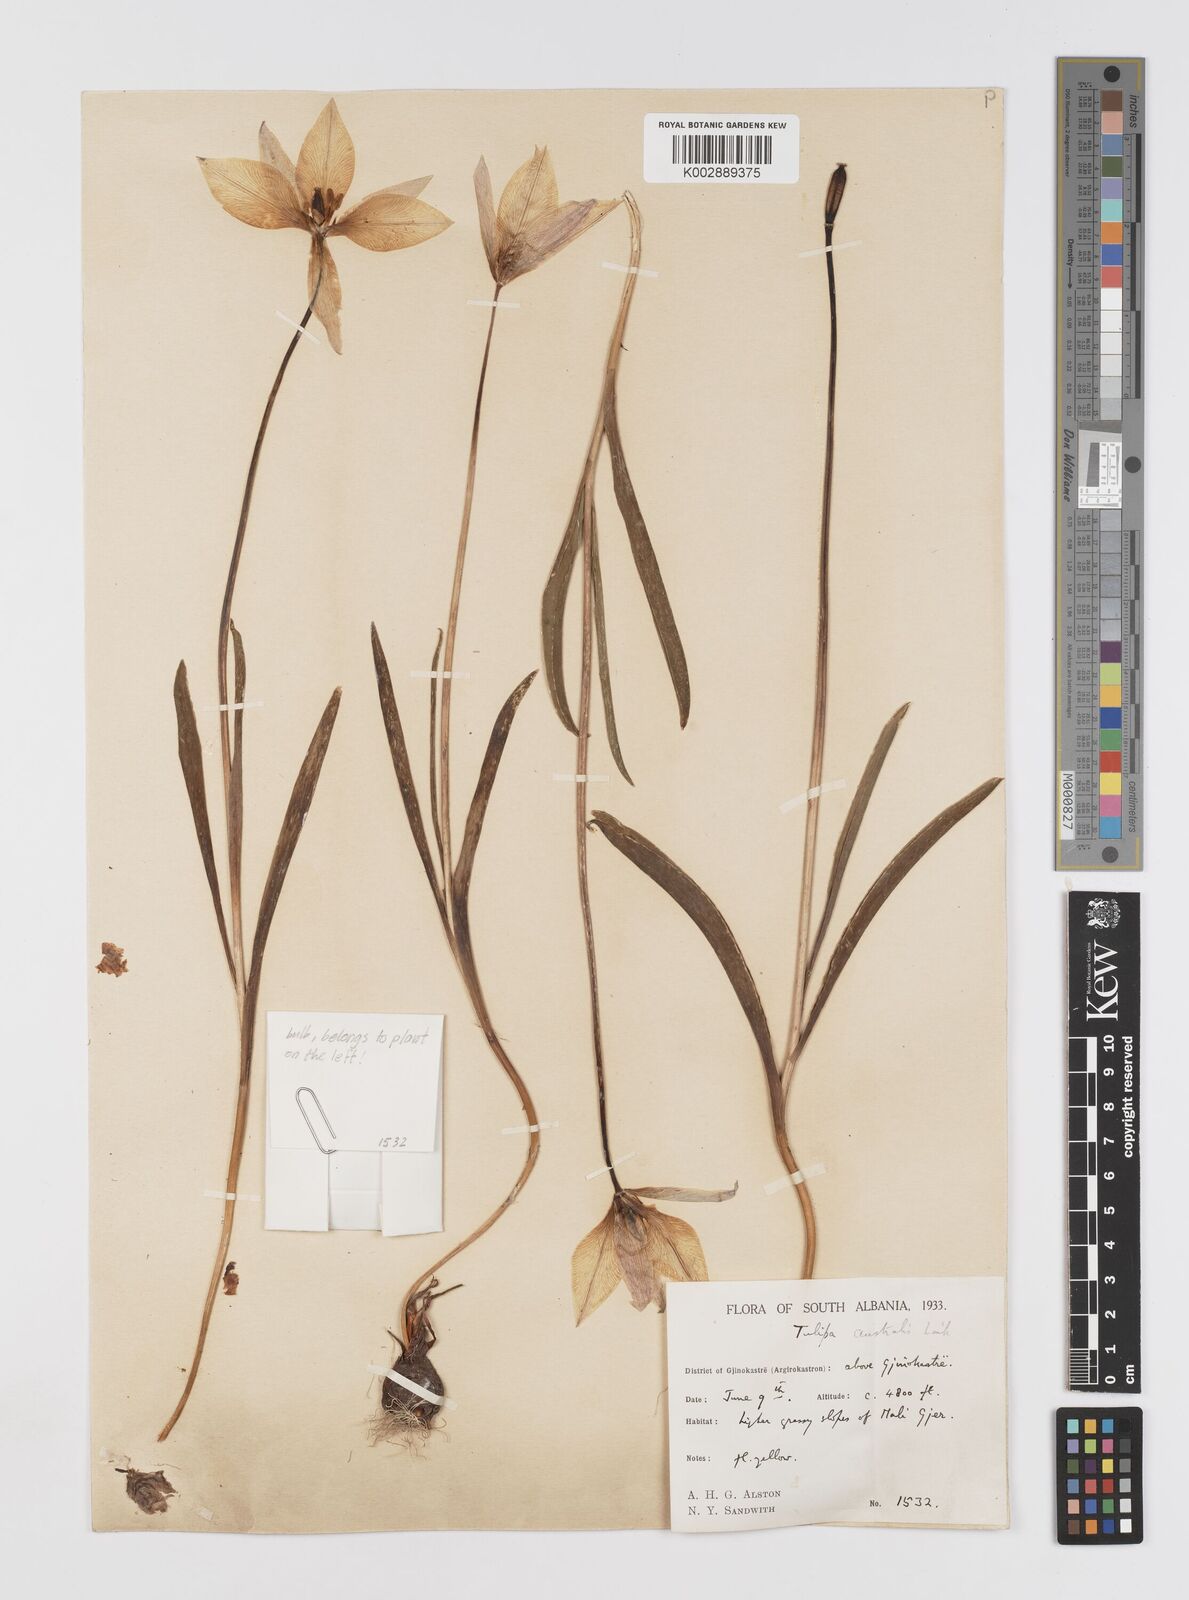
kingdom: Plantae
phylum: Tracheophyta
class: Liliopsida
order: Liliales
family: Liliaceae
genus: Tulipa
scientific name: Tulipa sylvestris
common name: Wild tulip
